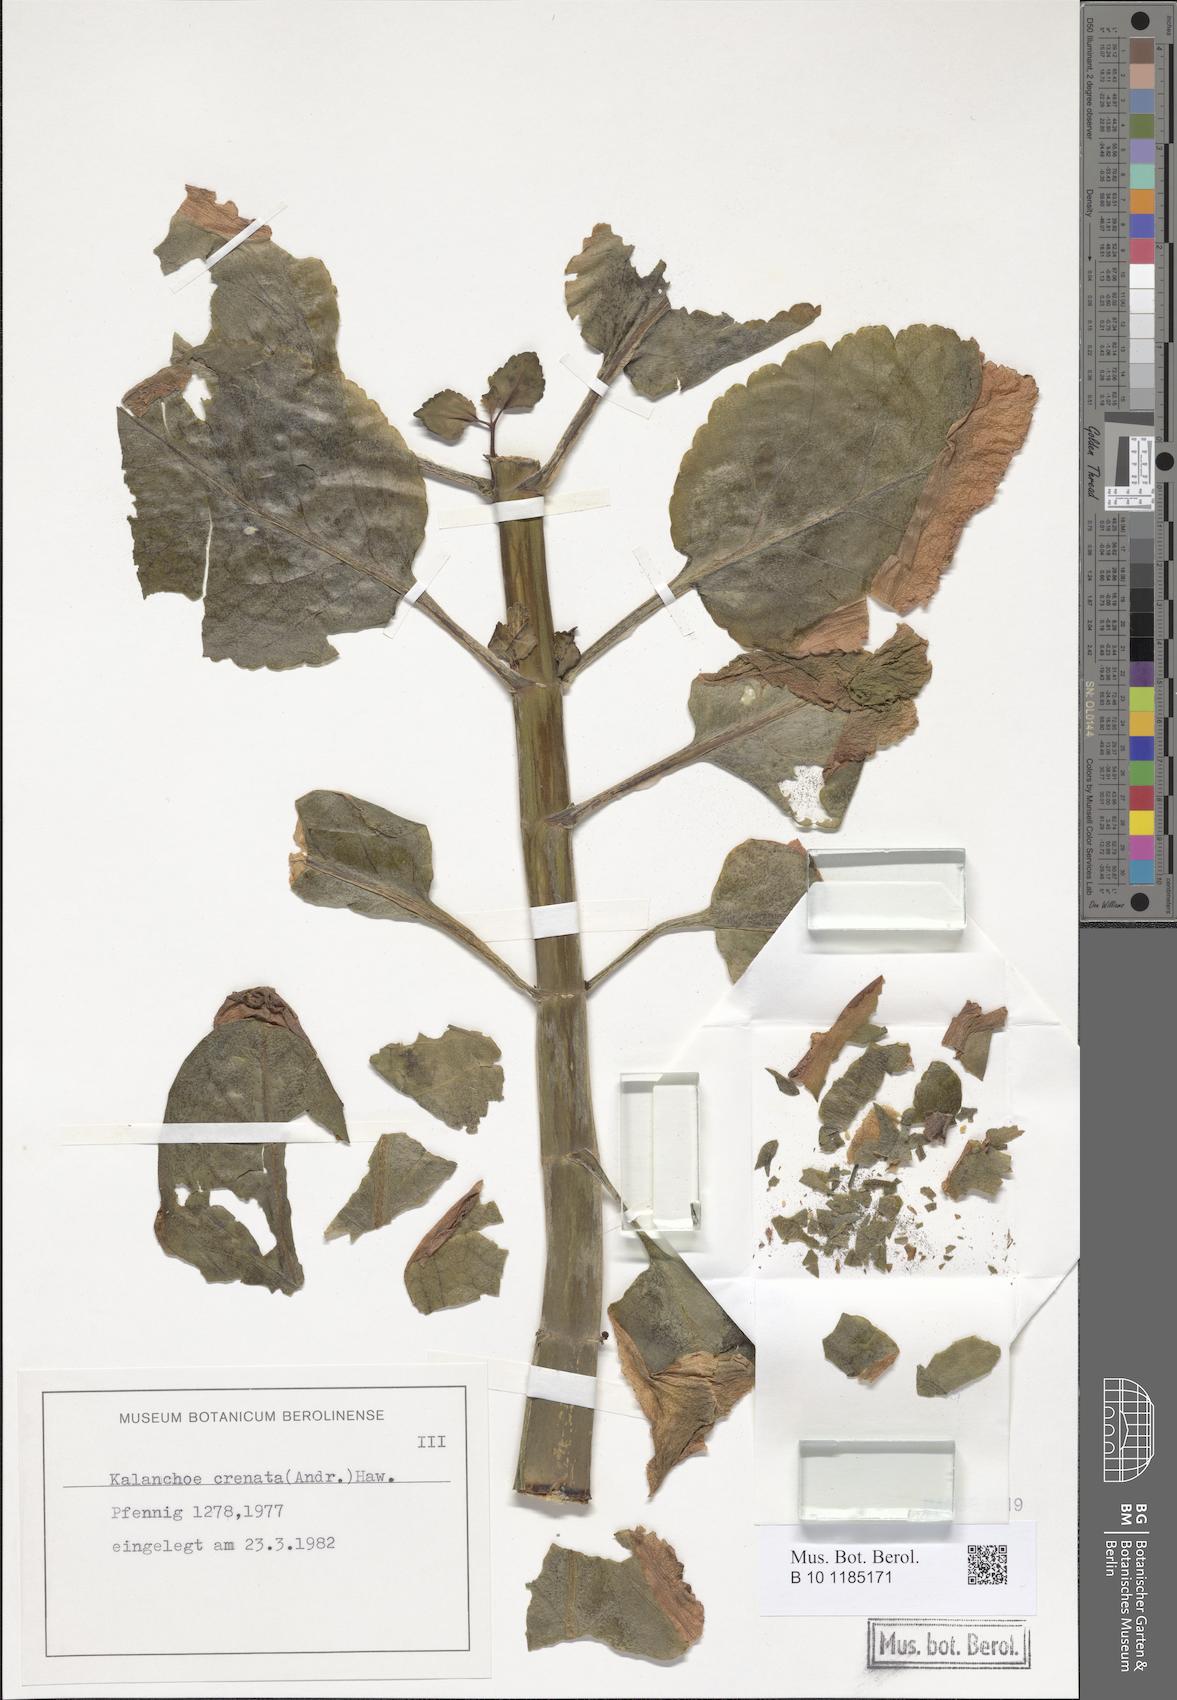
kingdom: Plantae
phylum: Tracheophyta
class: Magnoliopsida
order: Saxifragales
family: Crassulaceae
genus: Kalanchoe
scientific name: Kalanchoe crenata
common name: Neverdie
